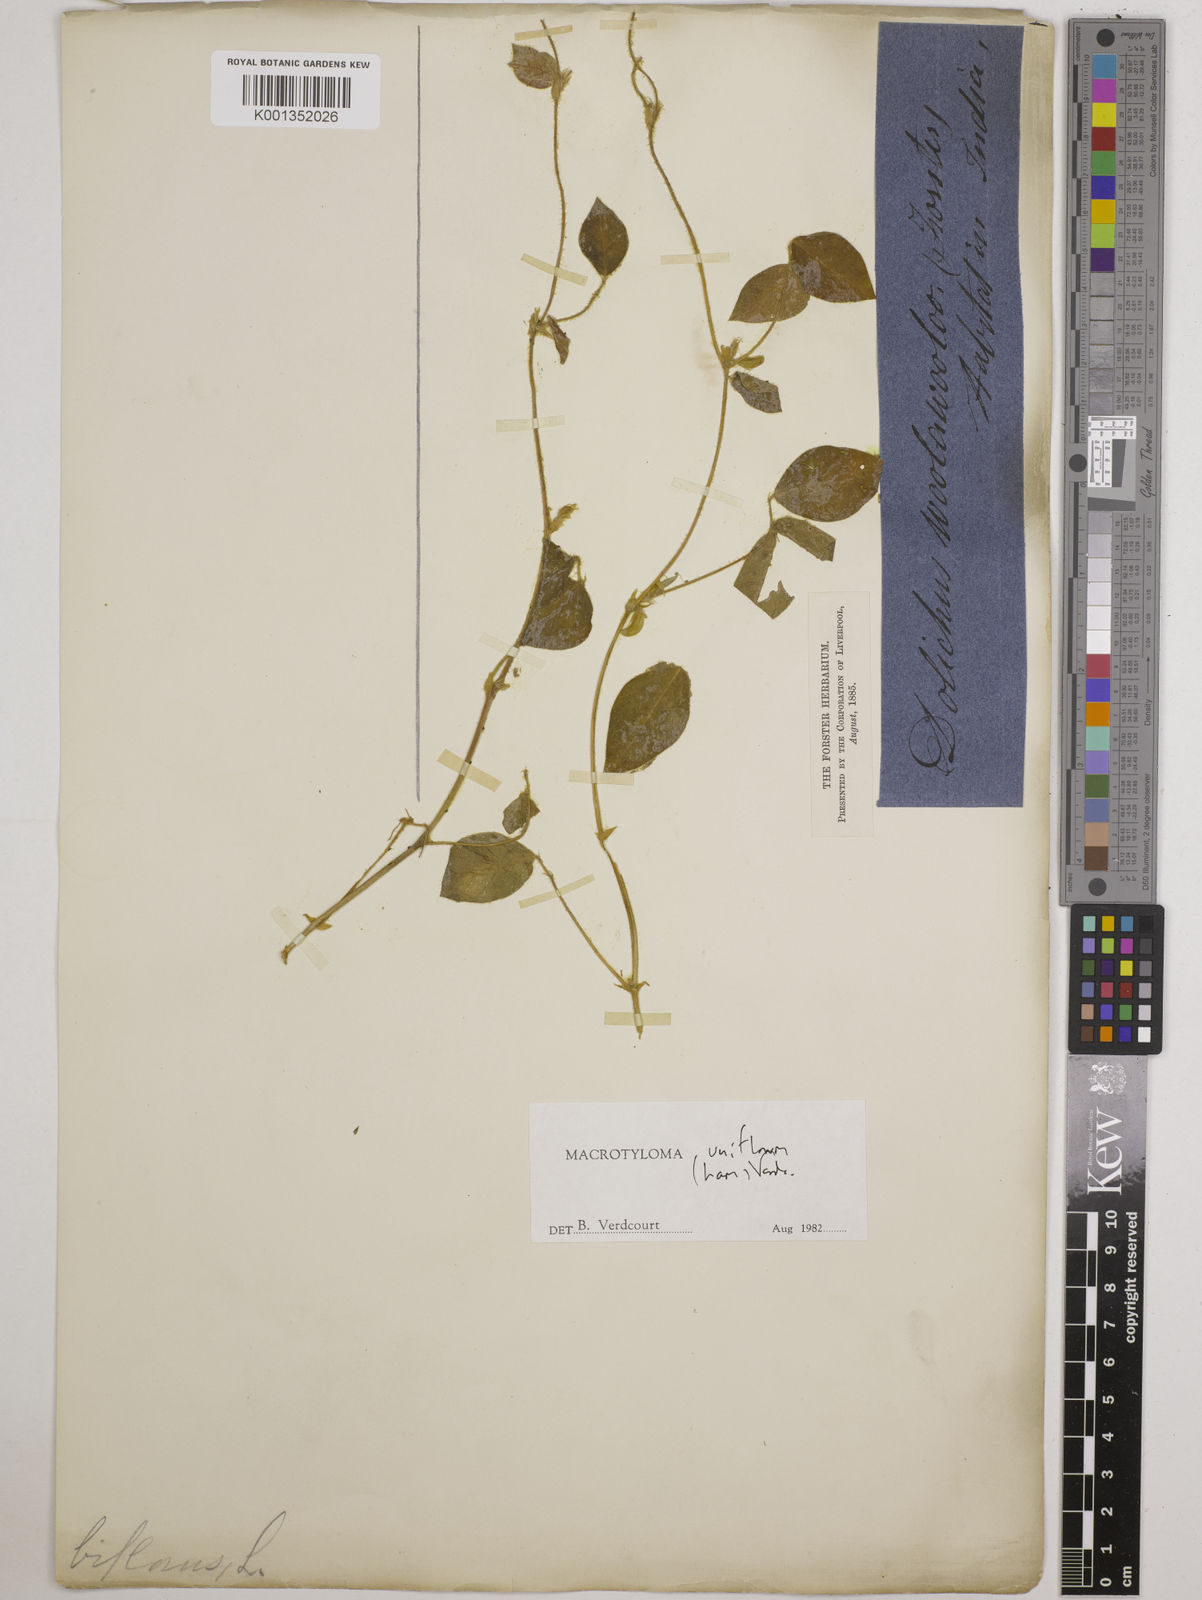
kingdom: Plantae
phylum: Tracheophyta
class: Magnoliopsida
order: Fabales
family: Fabaceae
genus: Macrotyloma
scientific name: Macrotyloma uniflorum
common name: Horse gram
